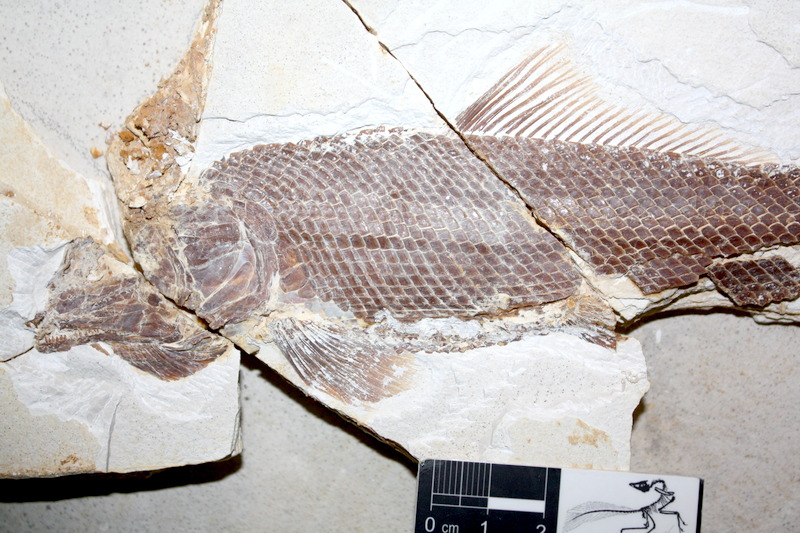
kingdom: Animalia
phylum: Chordata
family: Ophiopsiellidae
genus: Ophiopsiella
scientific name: Ophiopsiella attenuata
